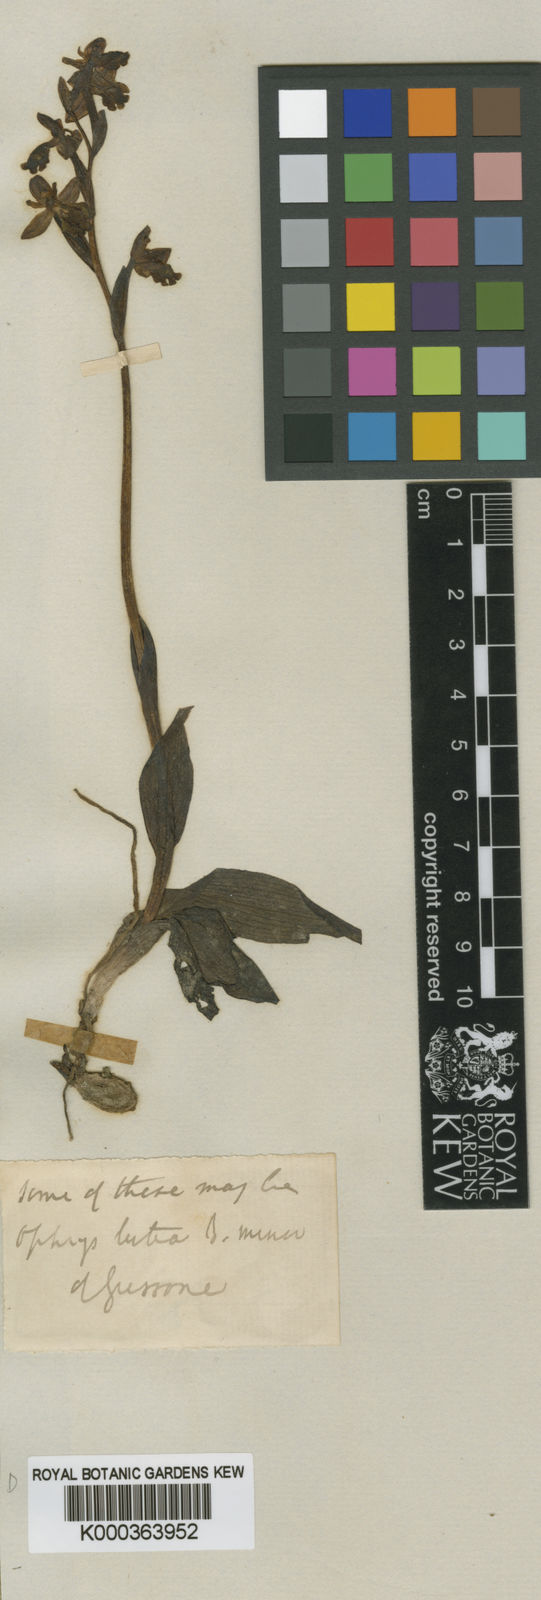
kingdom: Plantae
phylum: Tracheophyta
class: Liliopsida
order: Asparagales
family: Orchidaceae
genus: Ophrys
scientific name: Ophrys lutea
